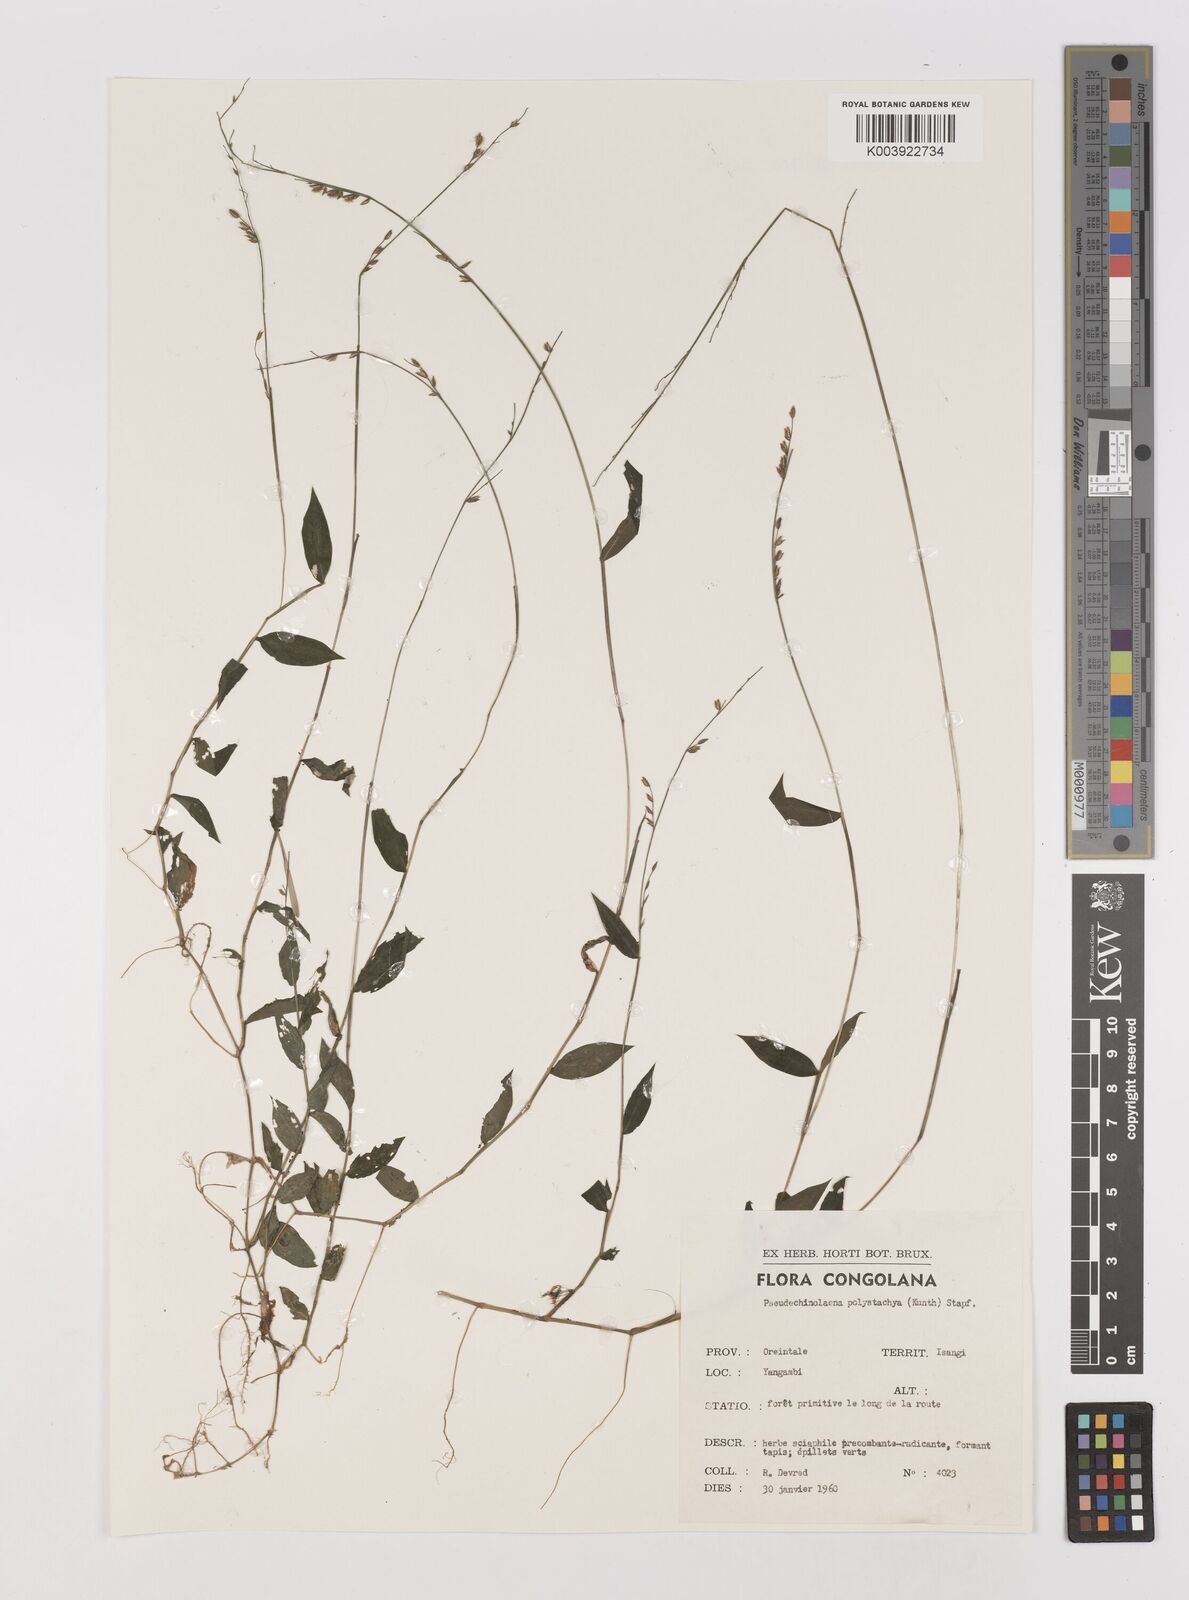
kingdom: Plantae
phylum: Tracheophyta
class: Liliopsida
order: Poales
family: Poaceae
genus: Pseudechinolaena
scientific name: Pseudechinolaena polystachya
